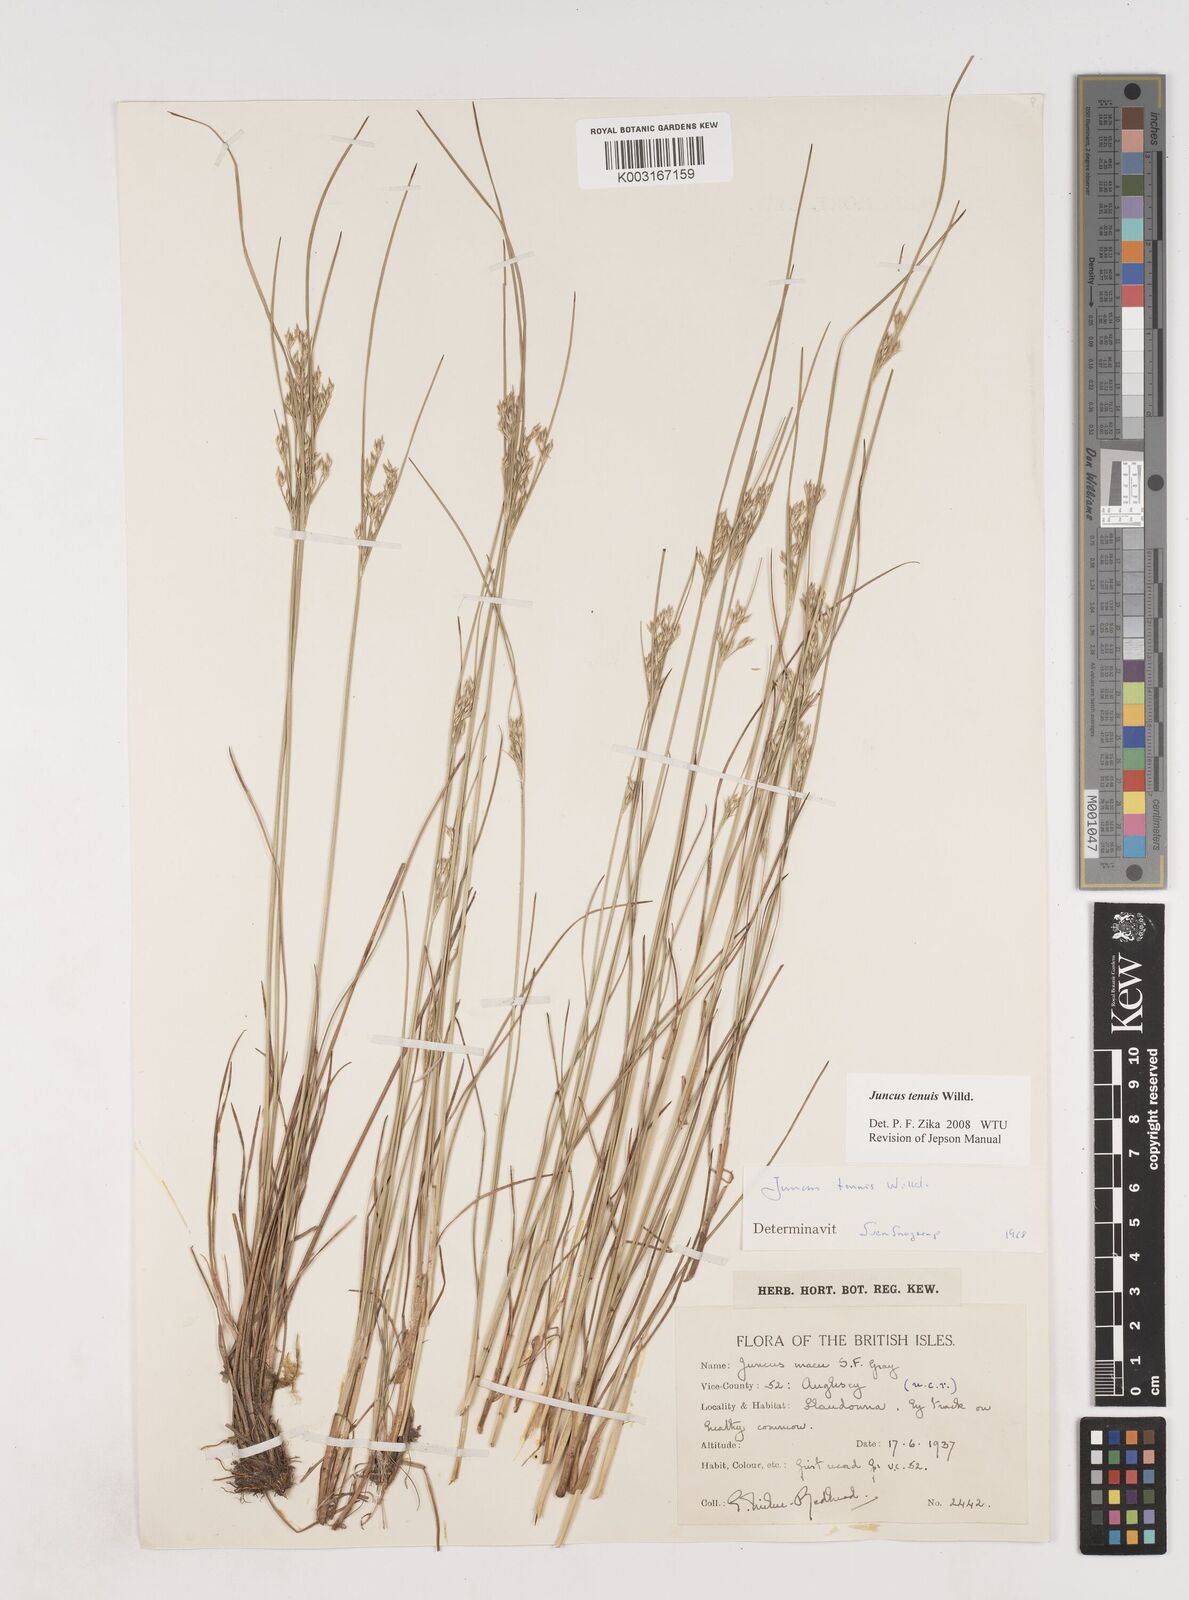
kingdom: Plantae
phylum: Tracheophyta
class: Liliopsida
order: Poales
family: Juncaceae
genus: Juncus
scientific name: Juncus tenuis
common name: Slender rush
